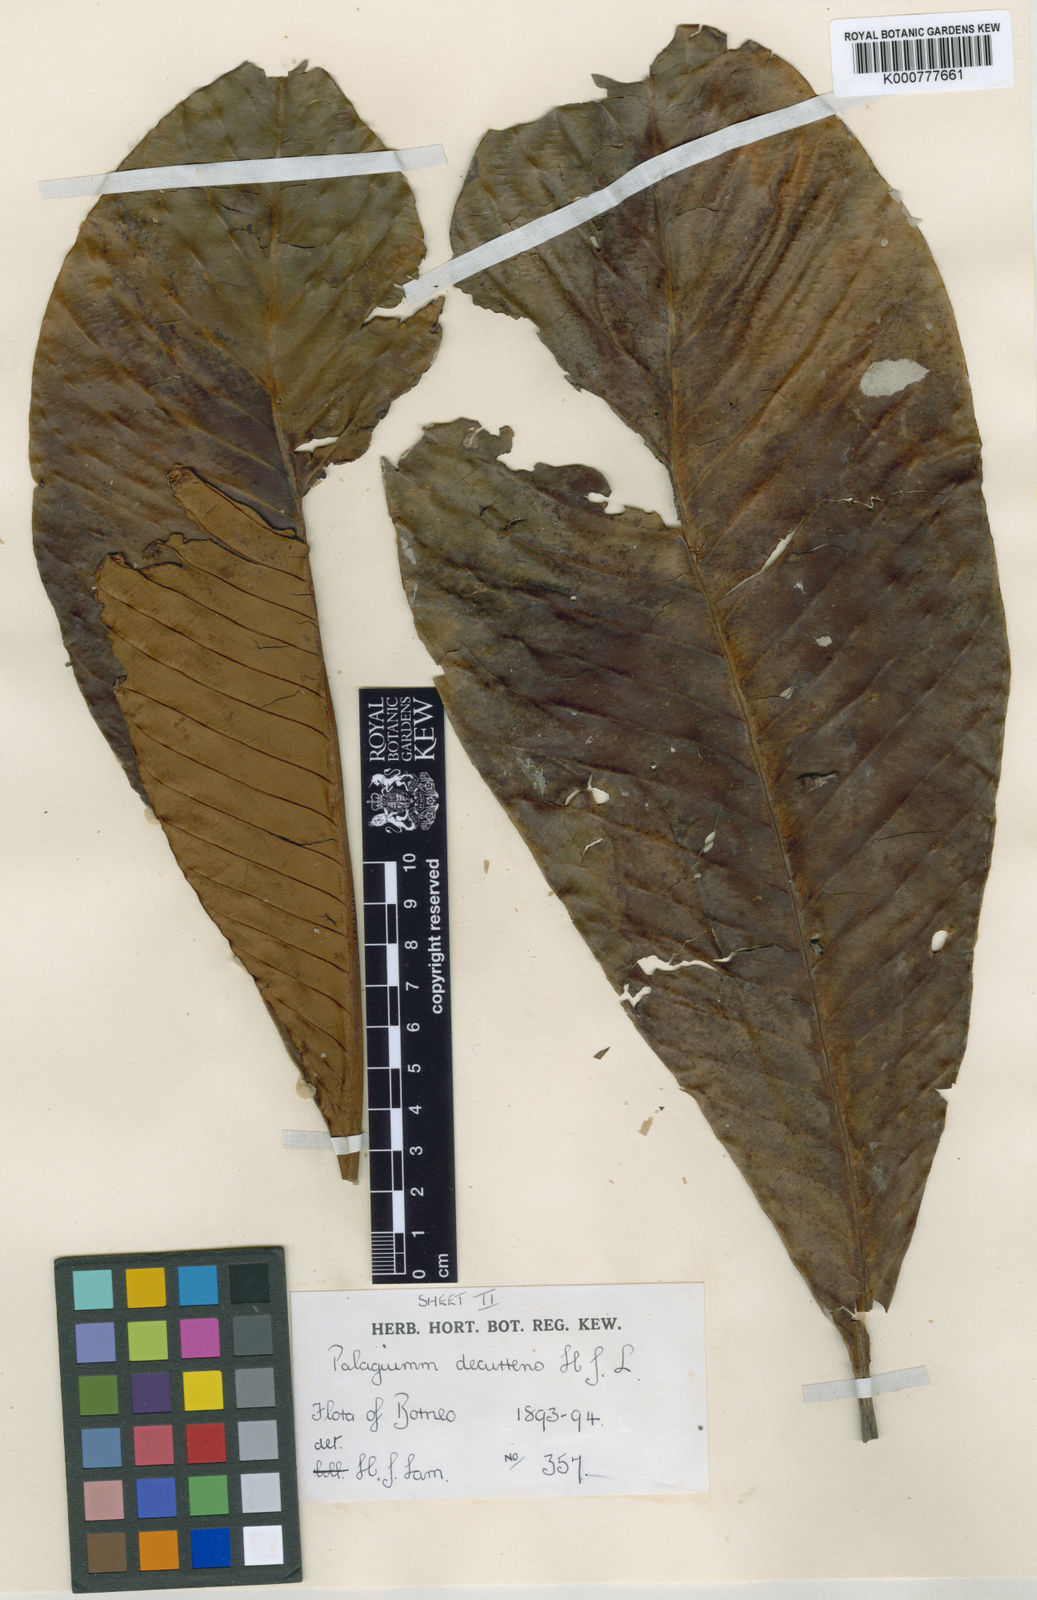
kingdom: Plantae
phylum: Tracheophyta
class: Magnoliopsida
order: Ericales
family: Sapotaceae
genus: Palaquium
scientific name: Palaquium decurrens
